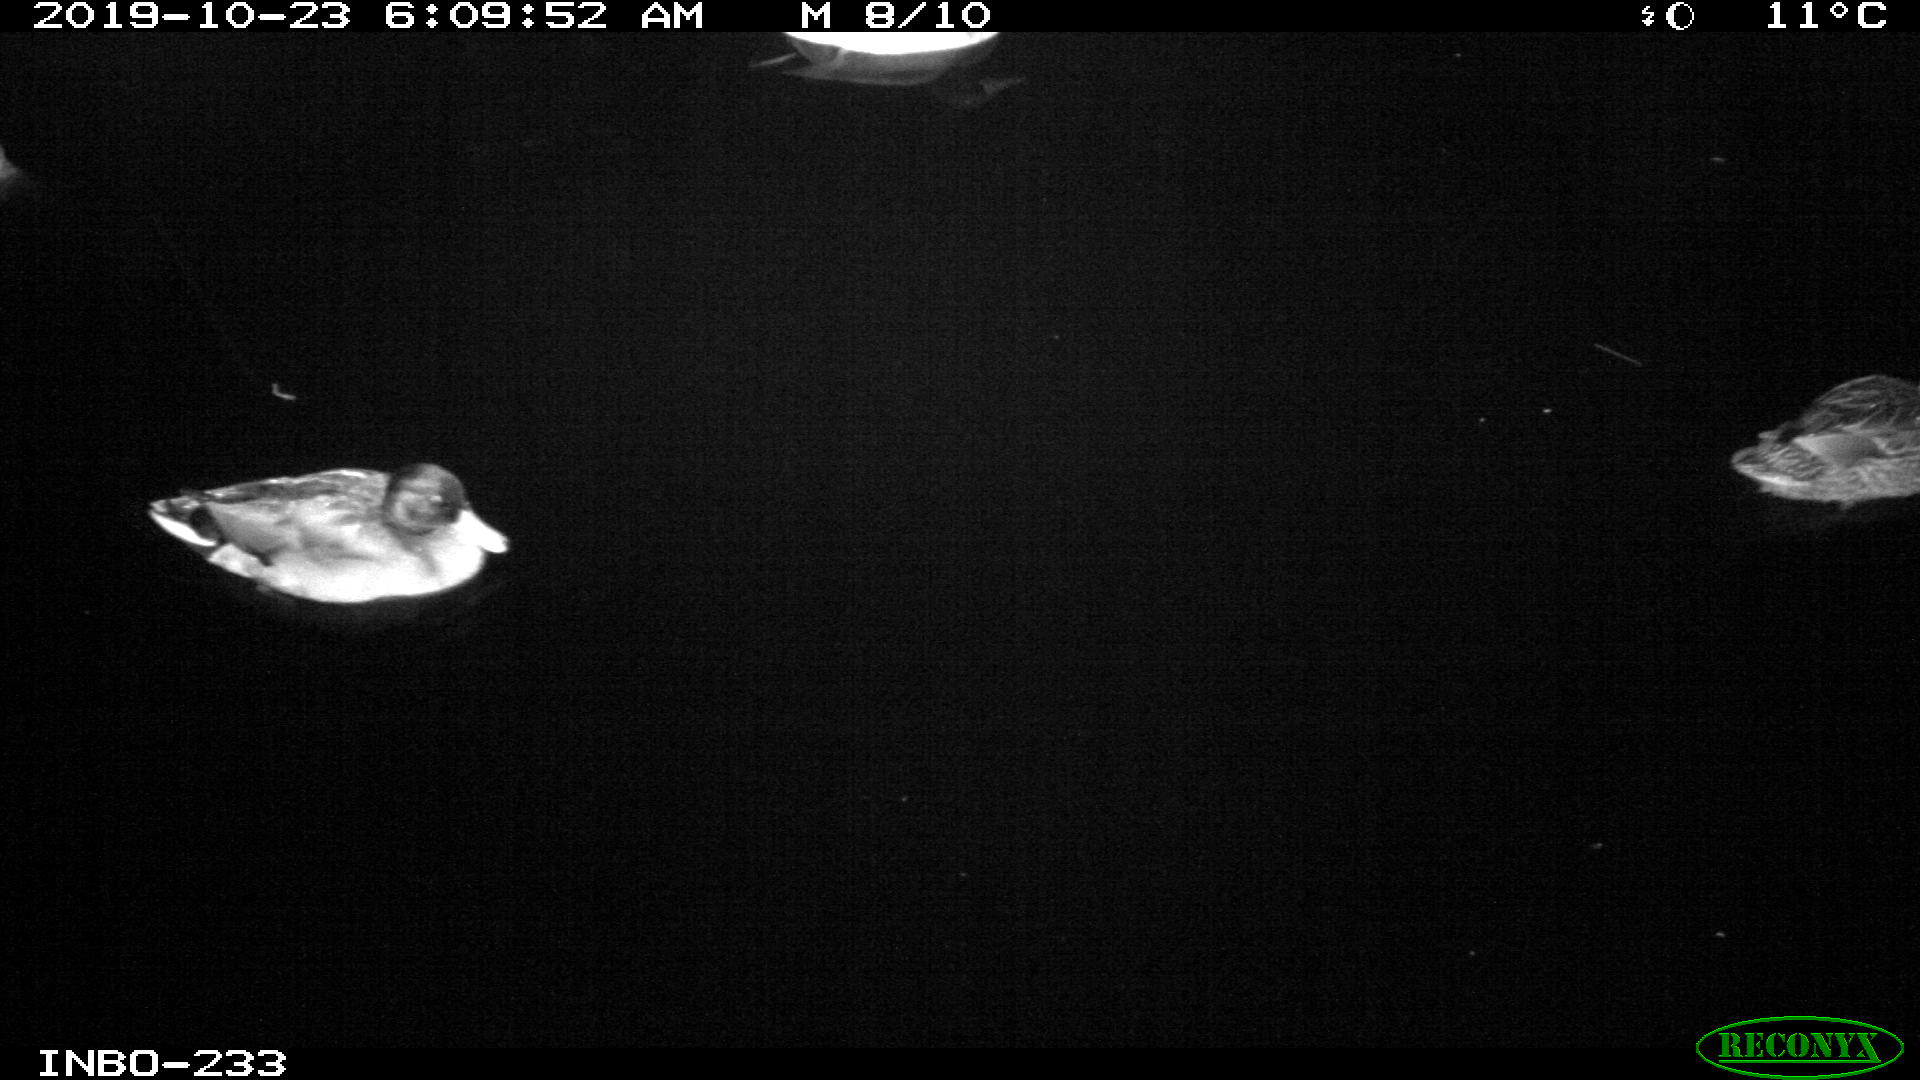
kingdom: Animalia
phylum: Chordata
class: Aves
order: Anseriformes
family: Anatidae
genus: Anas
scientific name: Anas platyrhynchos
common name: Mallard
